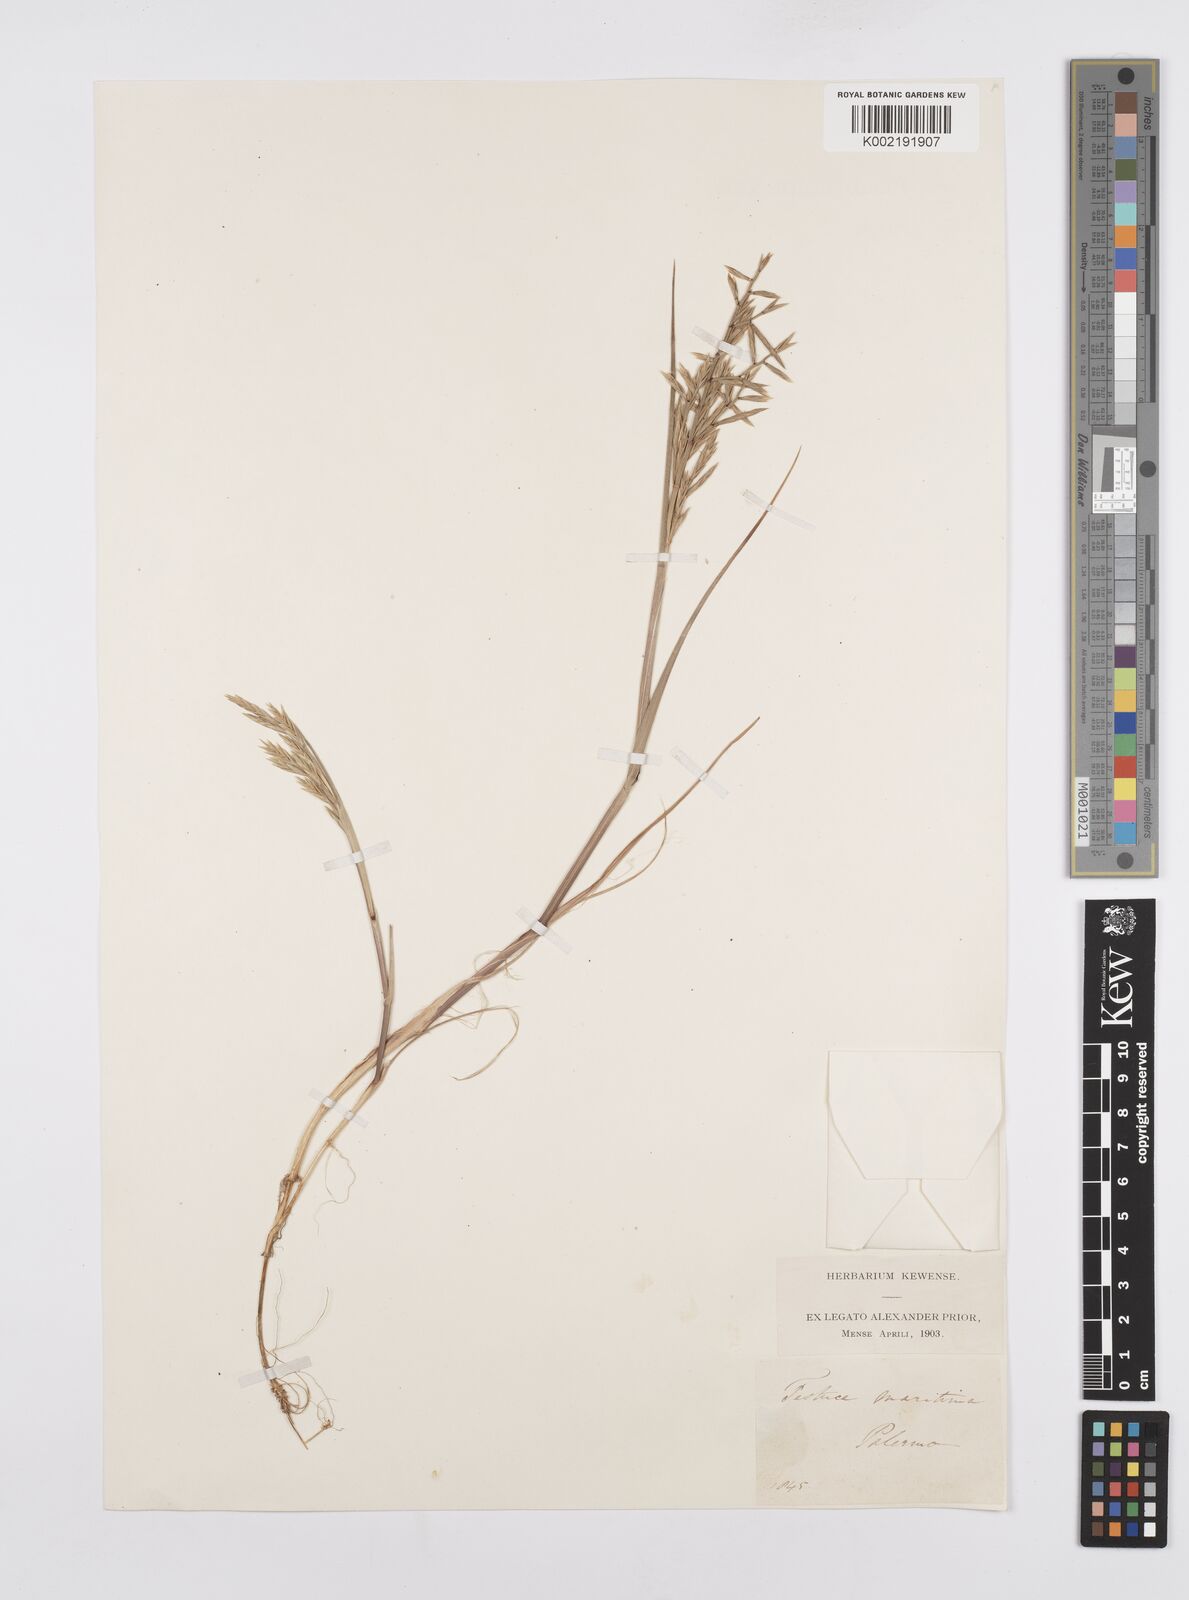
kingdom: Plantae
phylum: Tracheophyta
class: Liliopsida
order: Poales
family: Poaceae
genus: Cutandia
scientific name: Cutandia maritima
